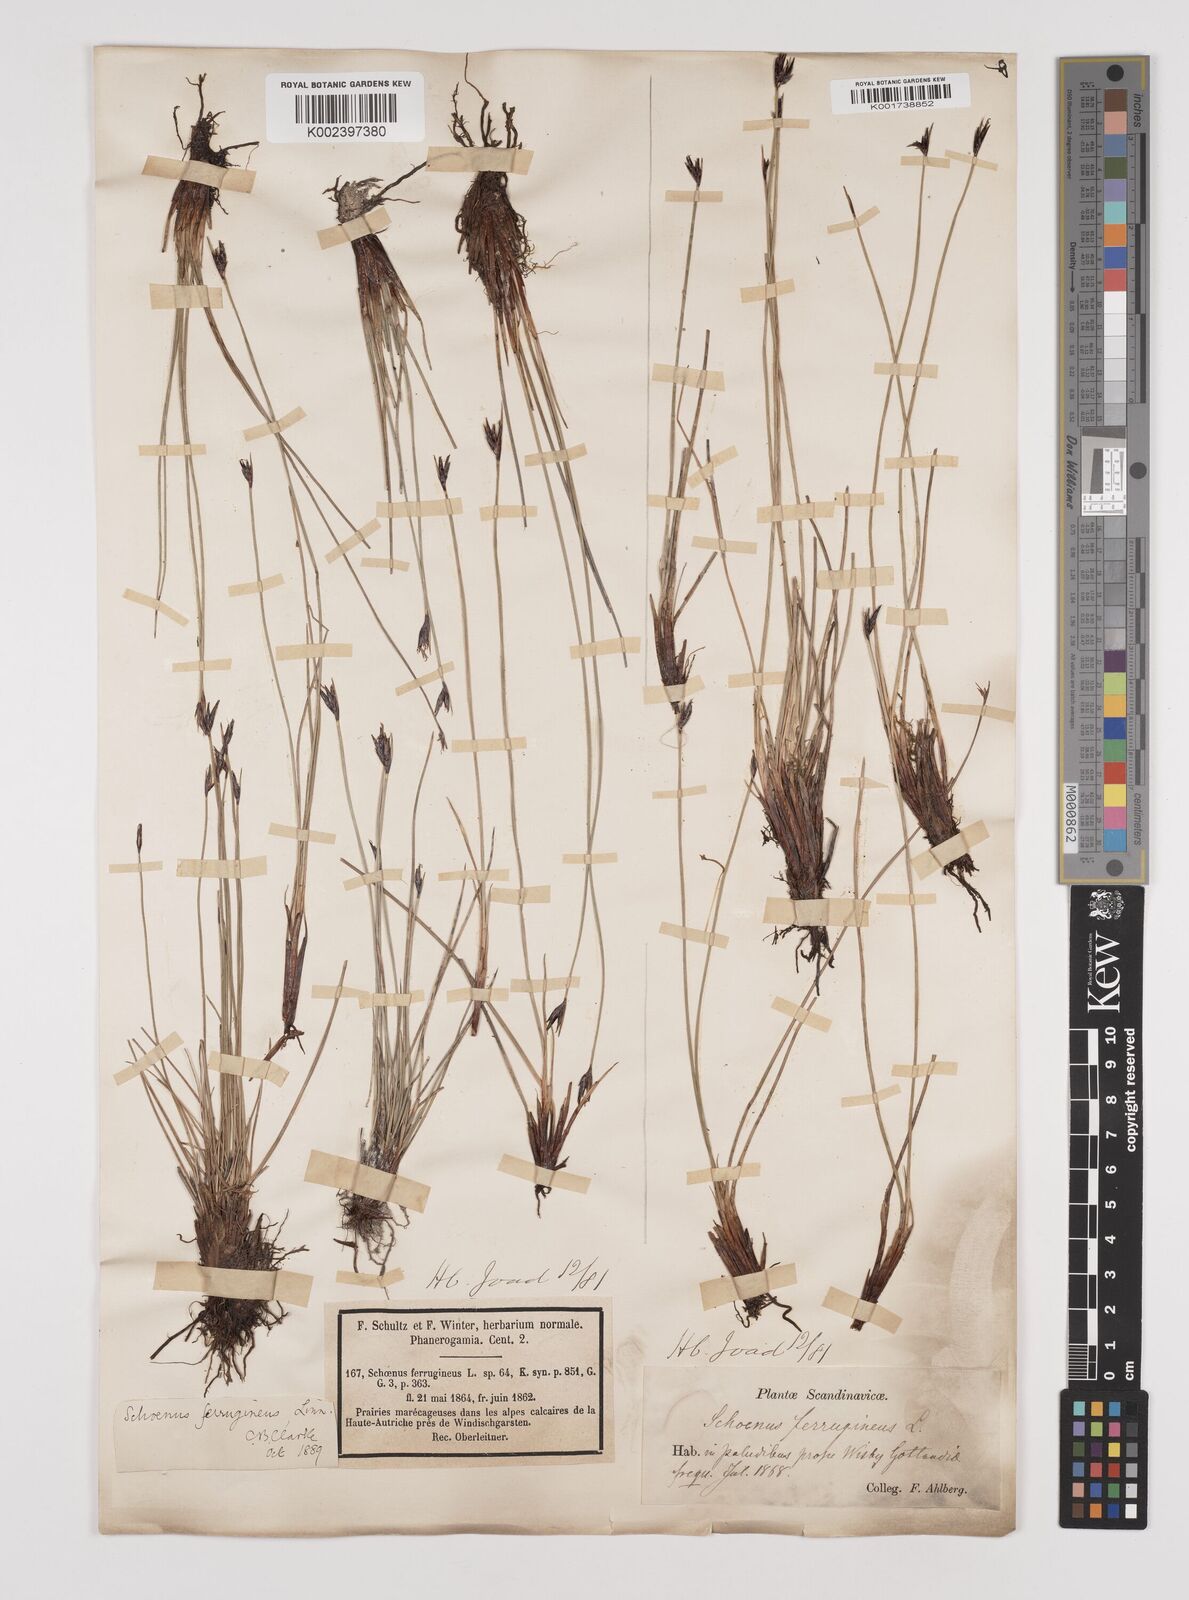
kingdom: Plantae
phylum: Tracheophyta
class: Liliopsida
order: Poales
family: Cyperaceae
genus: Schoenus
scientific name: Schoenus ferrugineus
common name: Brown bog-rush
